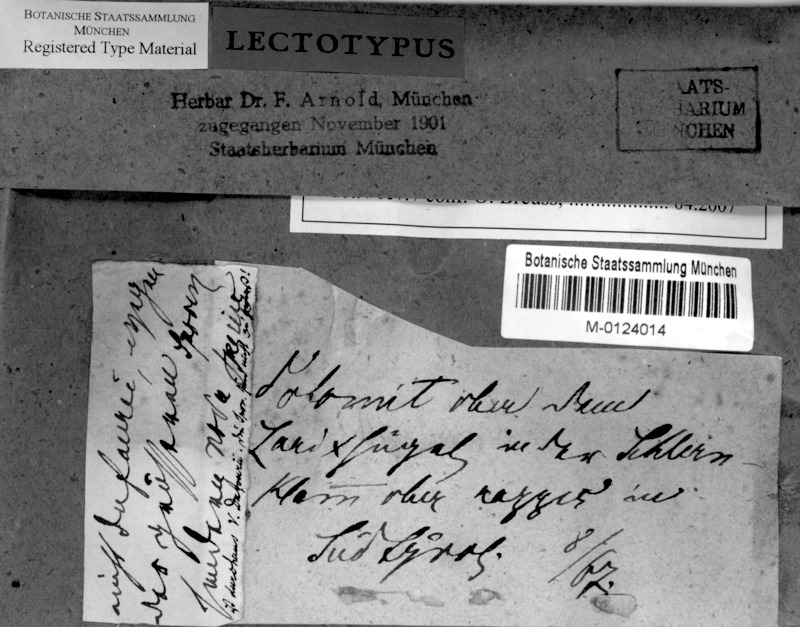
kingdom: Fungi
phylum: Ascomycota
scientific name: Ascomycota
